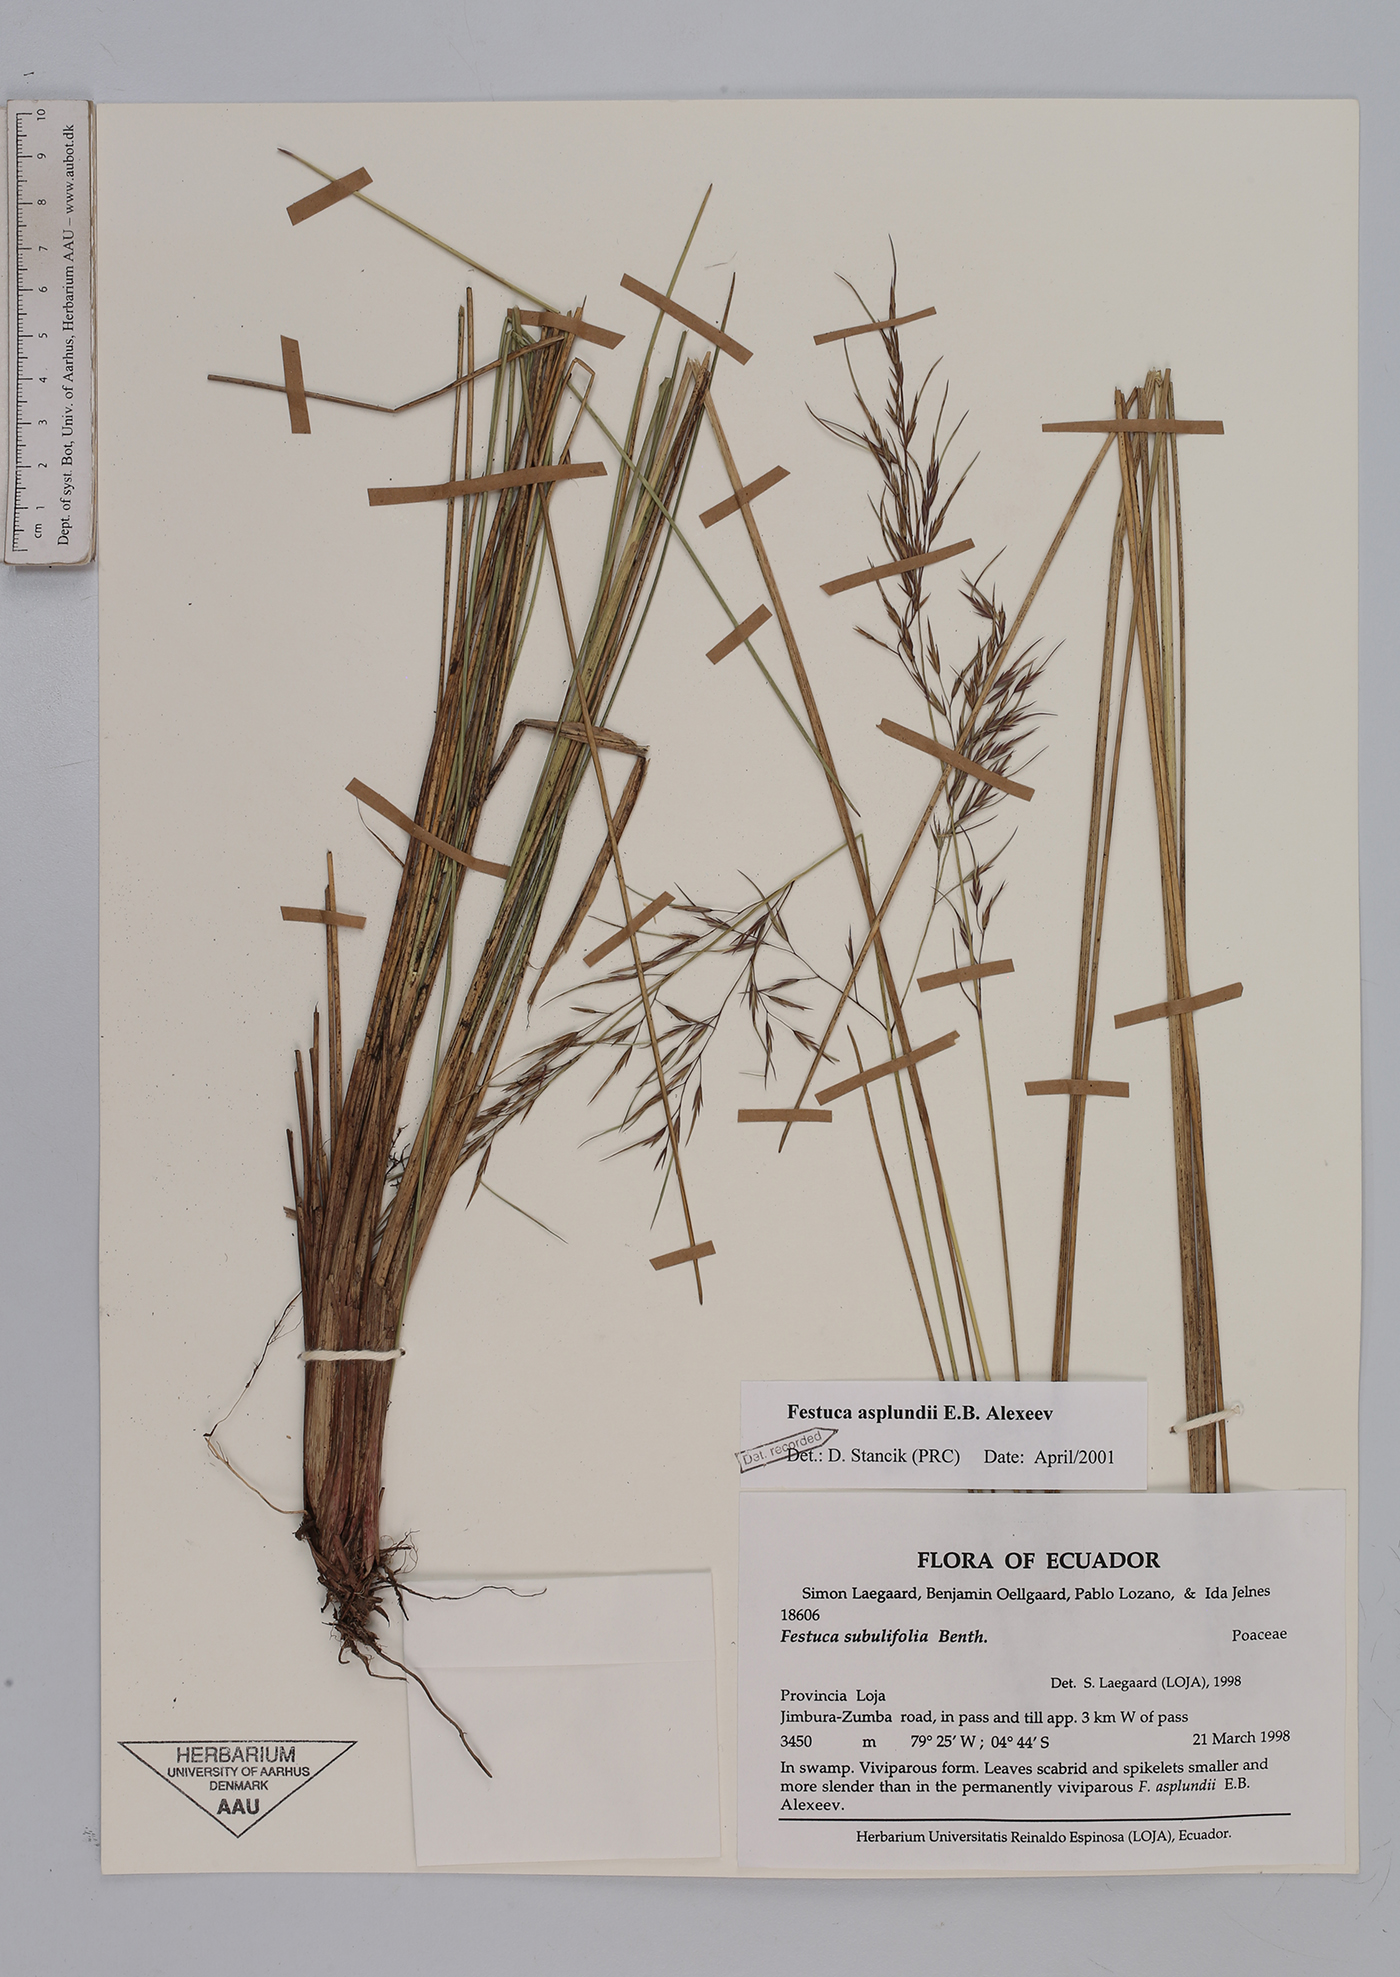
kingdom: Plantae
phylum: Tracheophyta
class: Liliopsida
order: Poales
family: Poaceae
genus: Festuca
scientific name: Festuca asplundii
